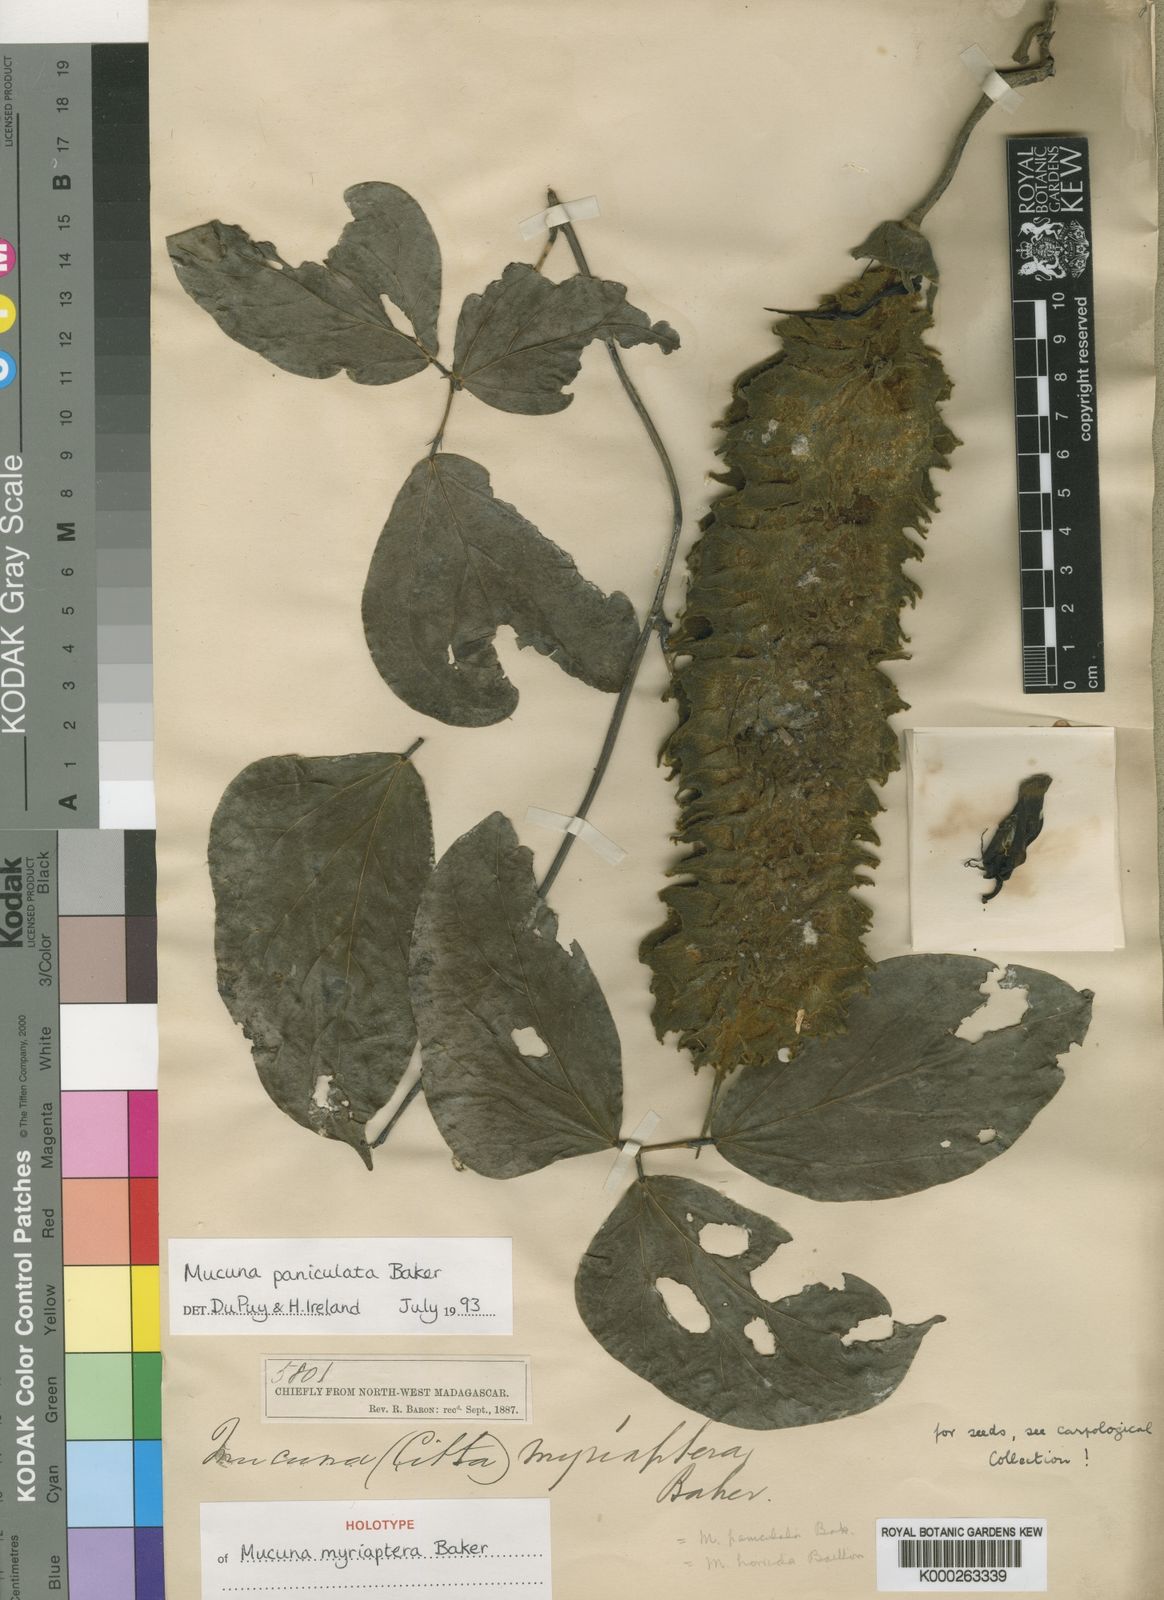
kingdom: Plantae
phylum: Tracheophyta
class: Magnoliopsida
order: Fabales
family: Fabaceae
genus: Mucuna
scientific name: Mucuna paniculata
